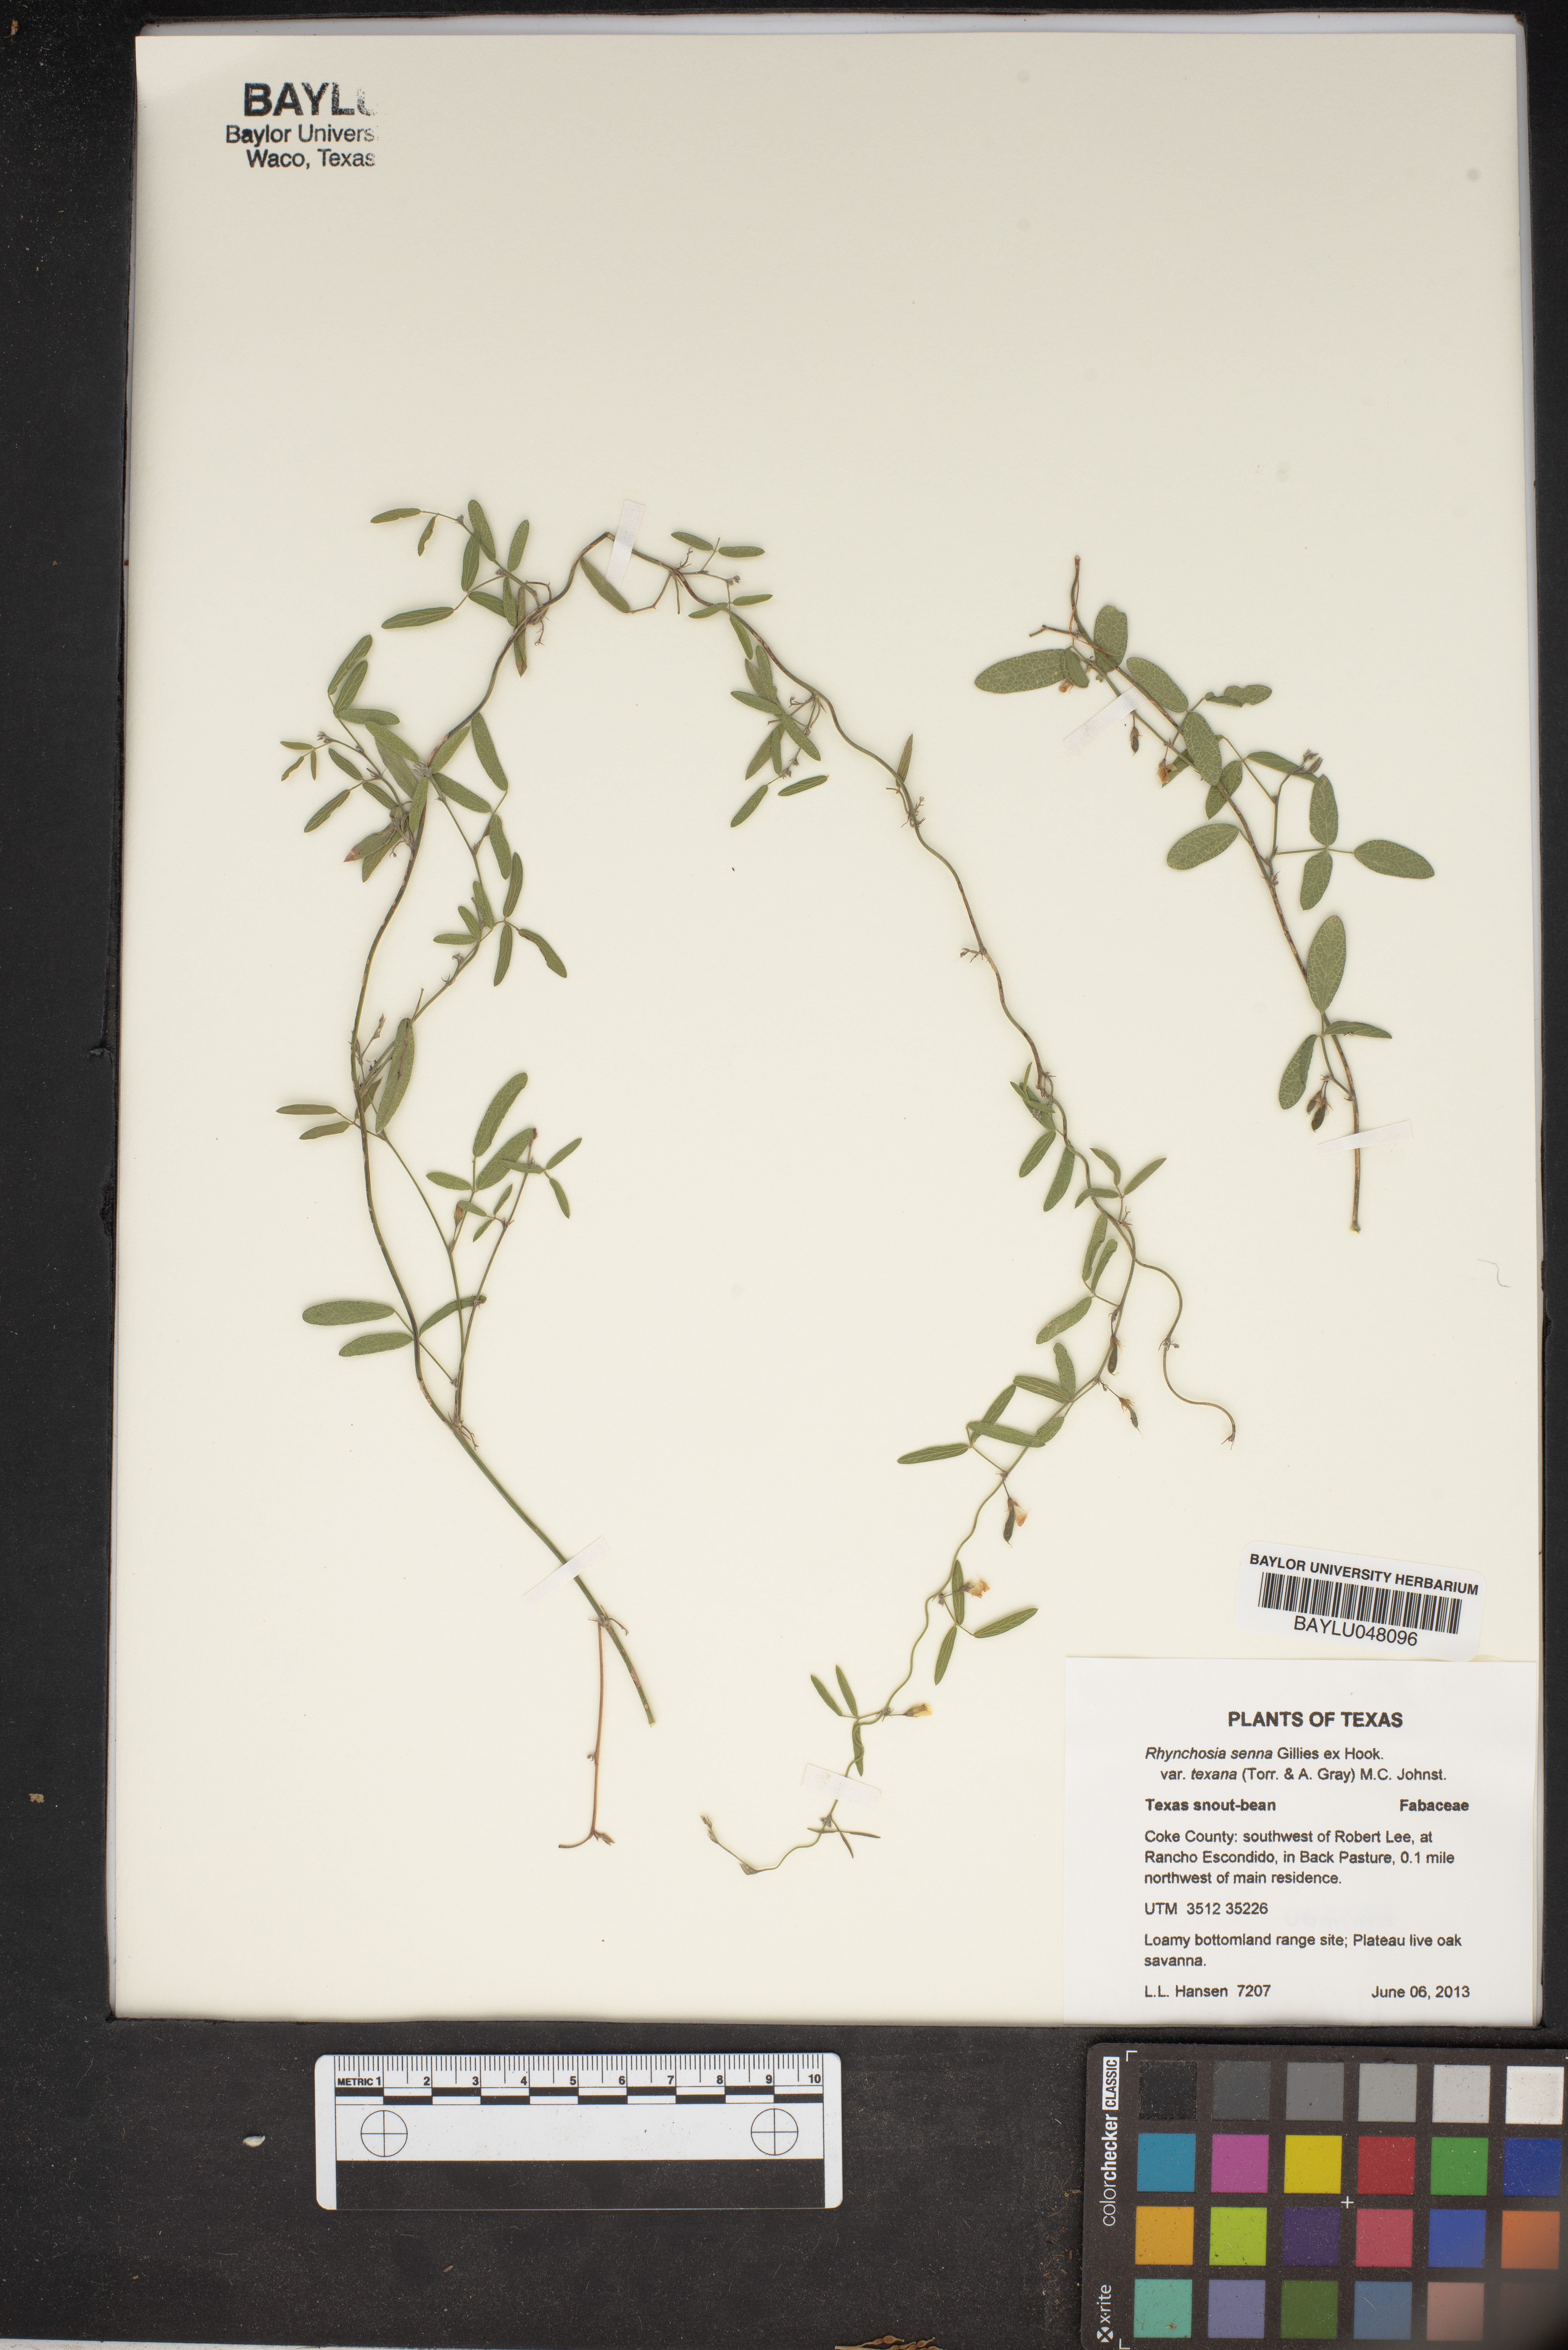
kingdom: Plantae
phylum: Tracheophyta
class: Magnoliopsida
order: Fabales
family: Fabaceae
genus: Rhynchosia
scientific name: Rhynchosia senna
